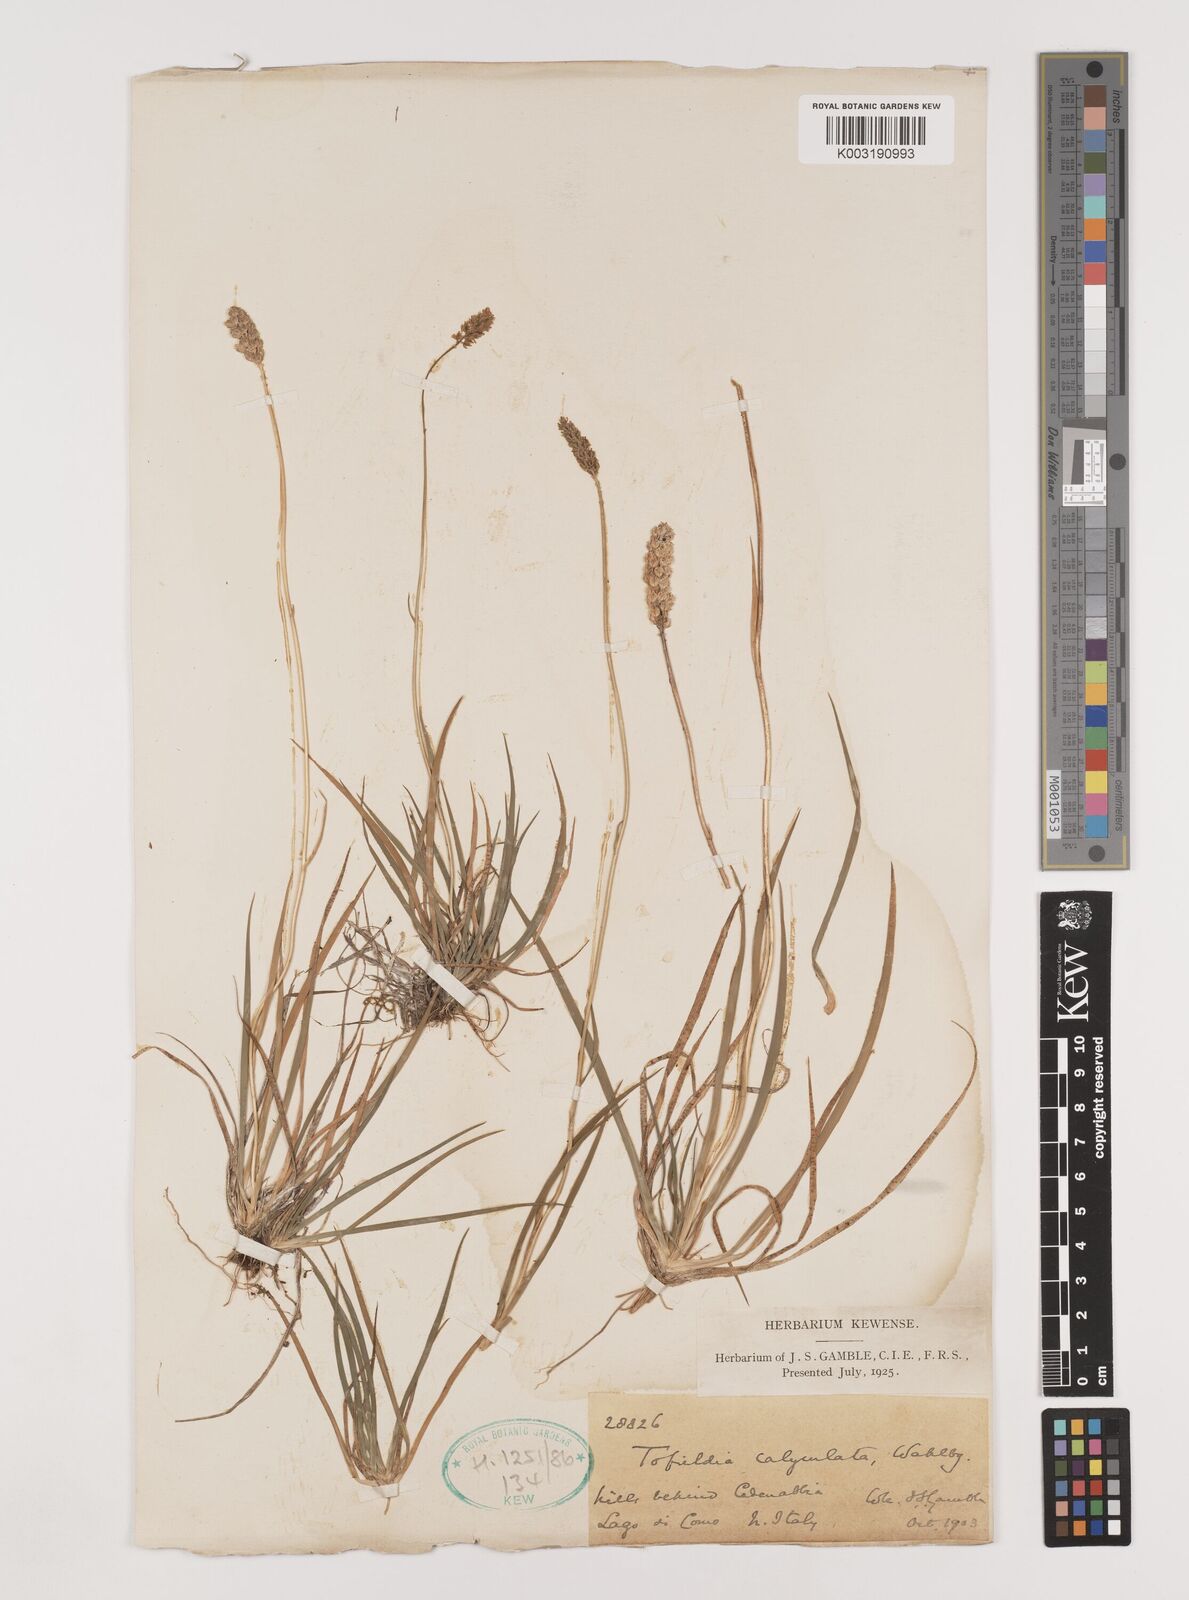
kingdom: Plantae
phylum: Tracheophyta
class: Liliopsida
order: Alismatales
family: Tofieldiaceae
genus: Tofieldia
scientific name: Tofieldia calyculata
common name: German-asphodel
